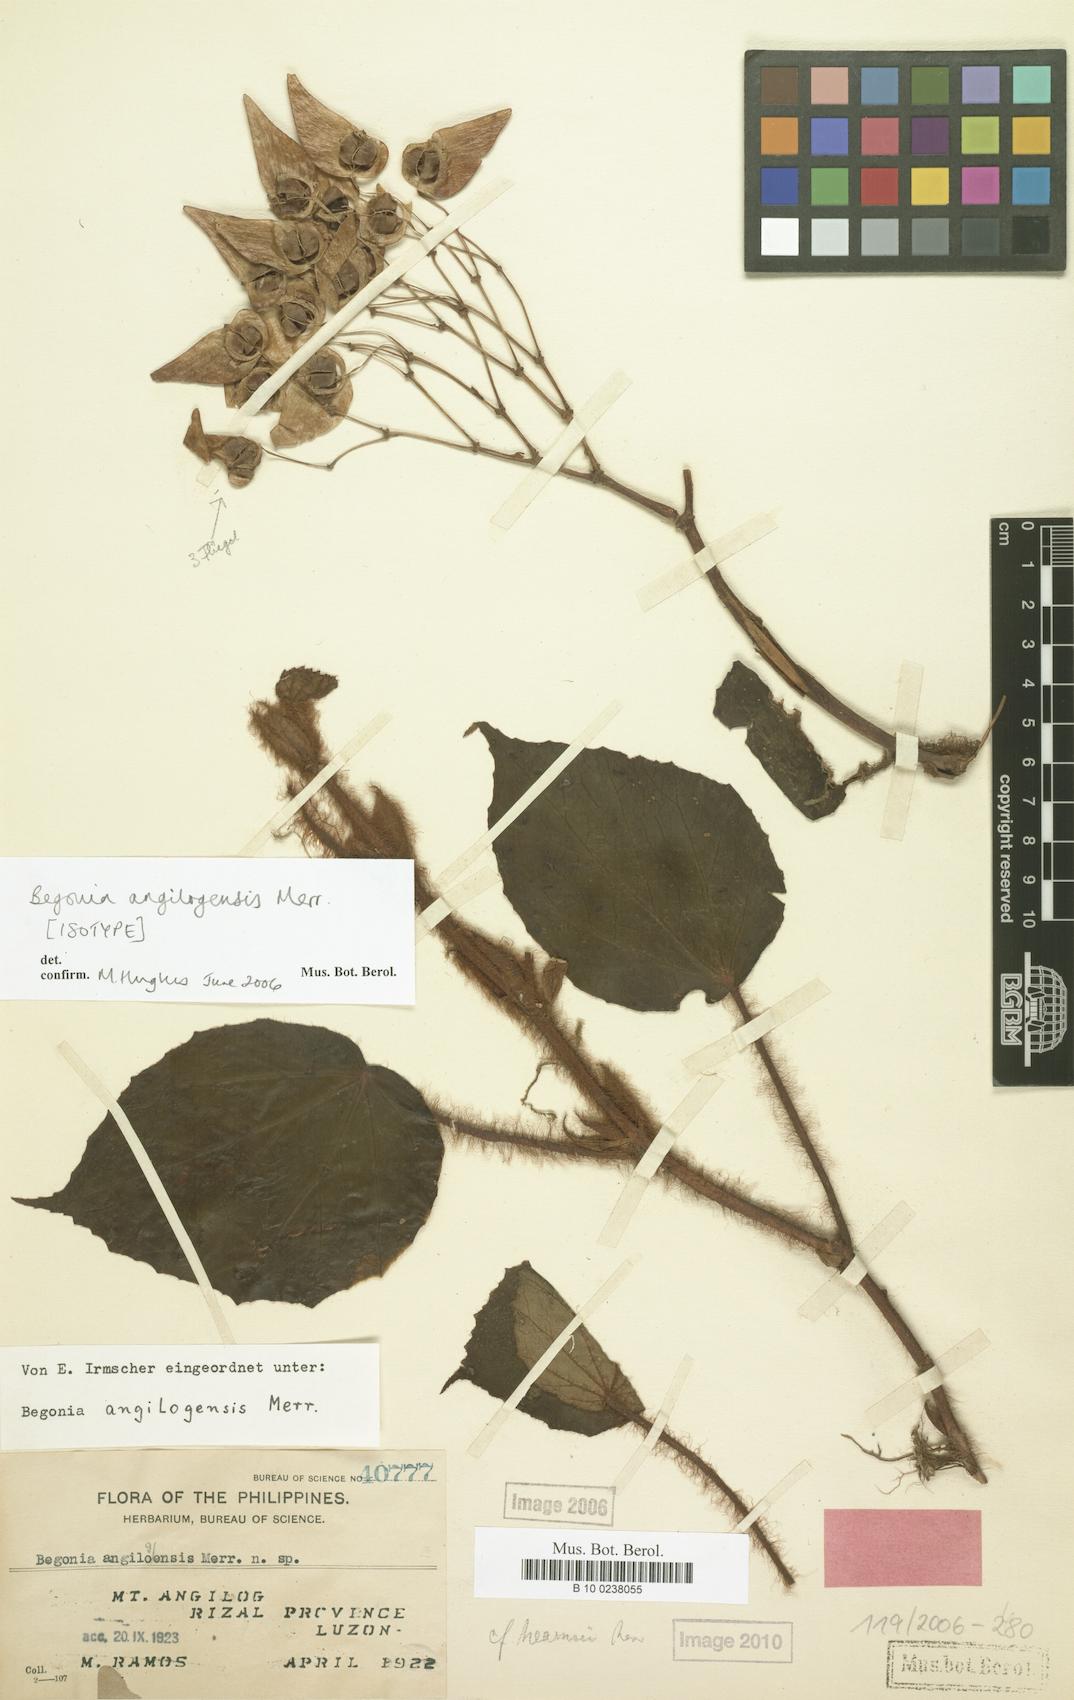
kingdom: Plantae
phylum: Tracheophyta
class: Magnoliopsida
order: Cucurbitales
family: Begoniaceae
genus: Begonia
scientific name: Begonia angilogensis
